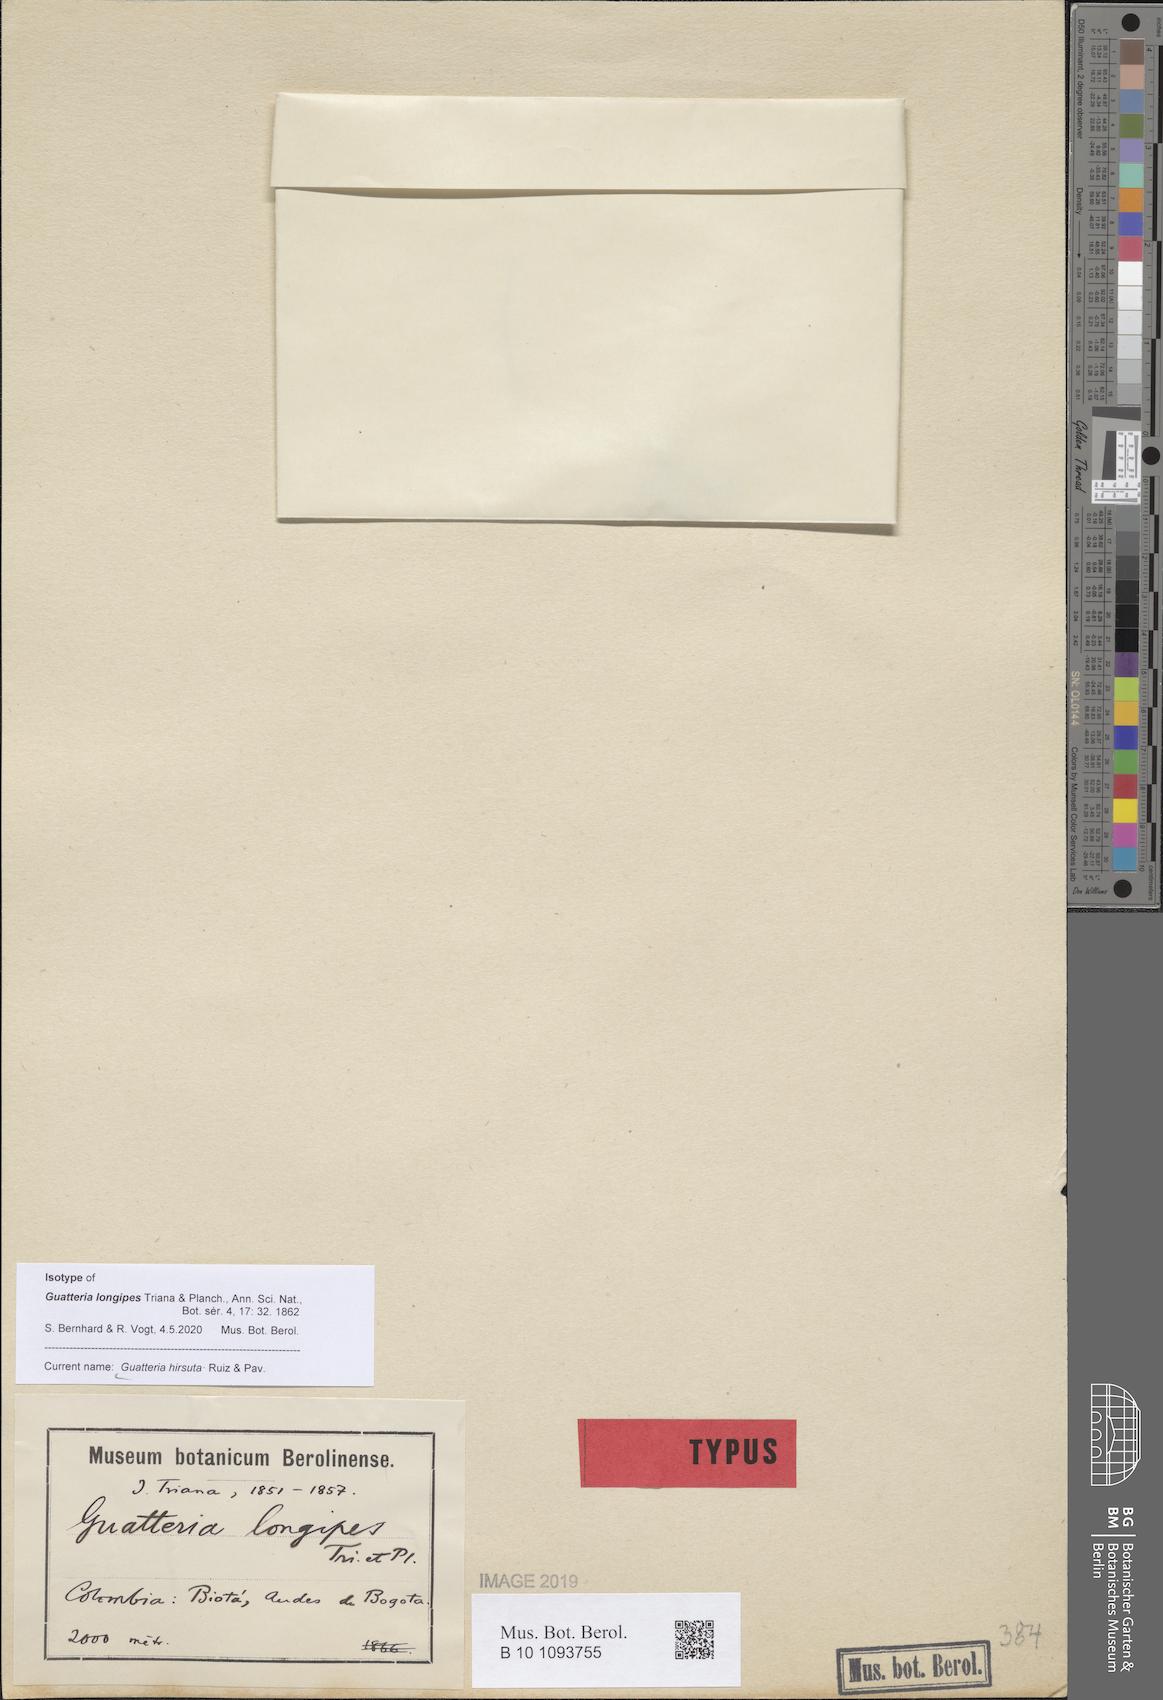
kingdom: Plantae
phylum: Tracheophyta
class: Magnoliopsida
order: Magnoliales
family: Annonaceae
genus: Guatteria
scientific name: Guatteria hirsuta
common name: Laurel
